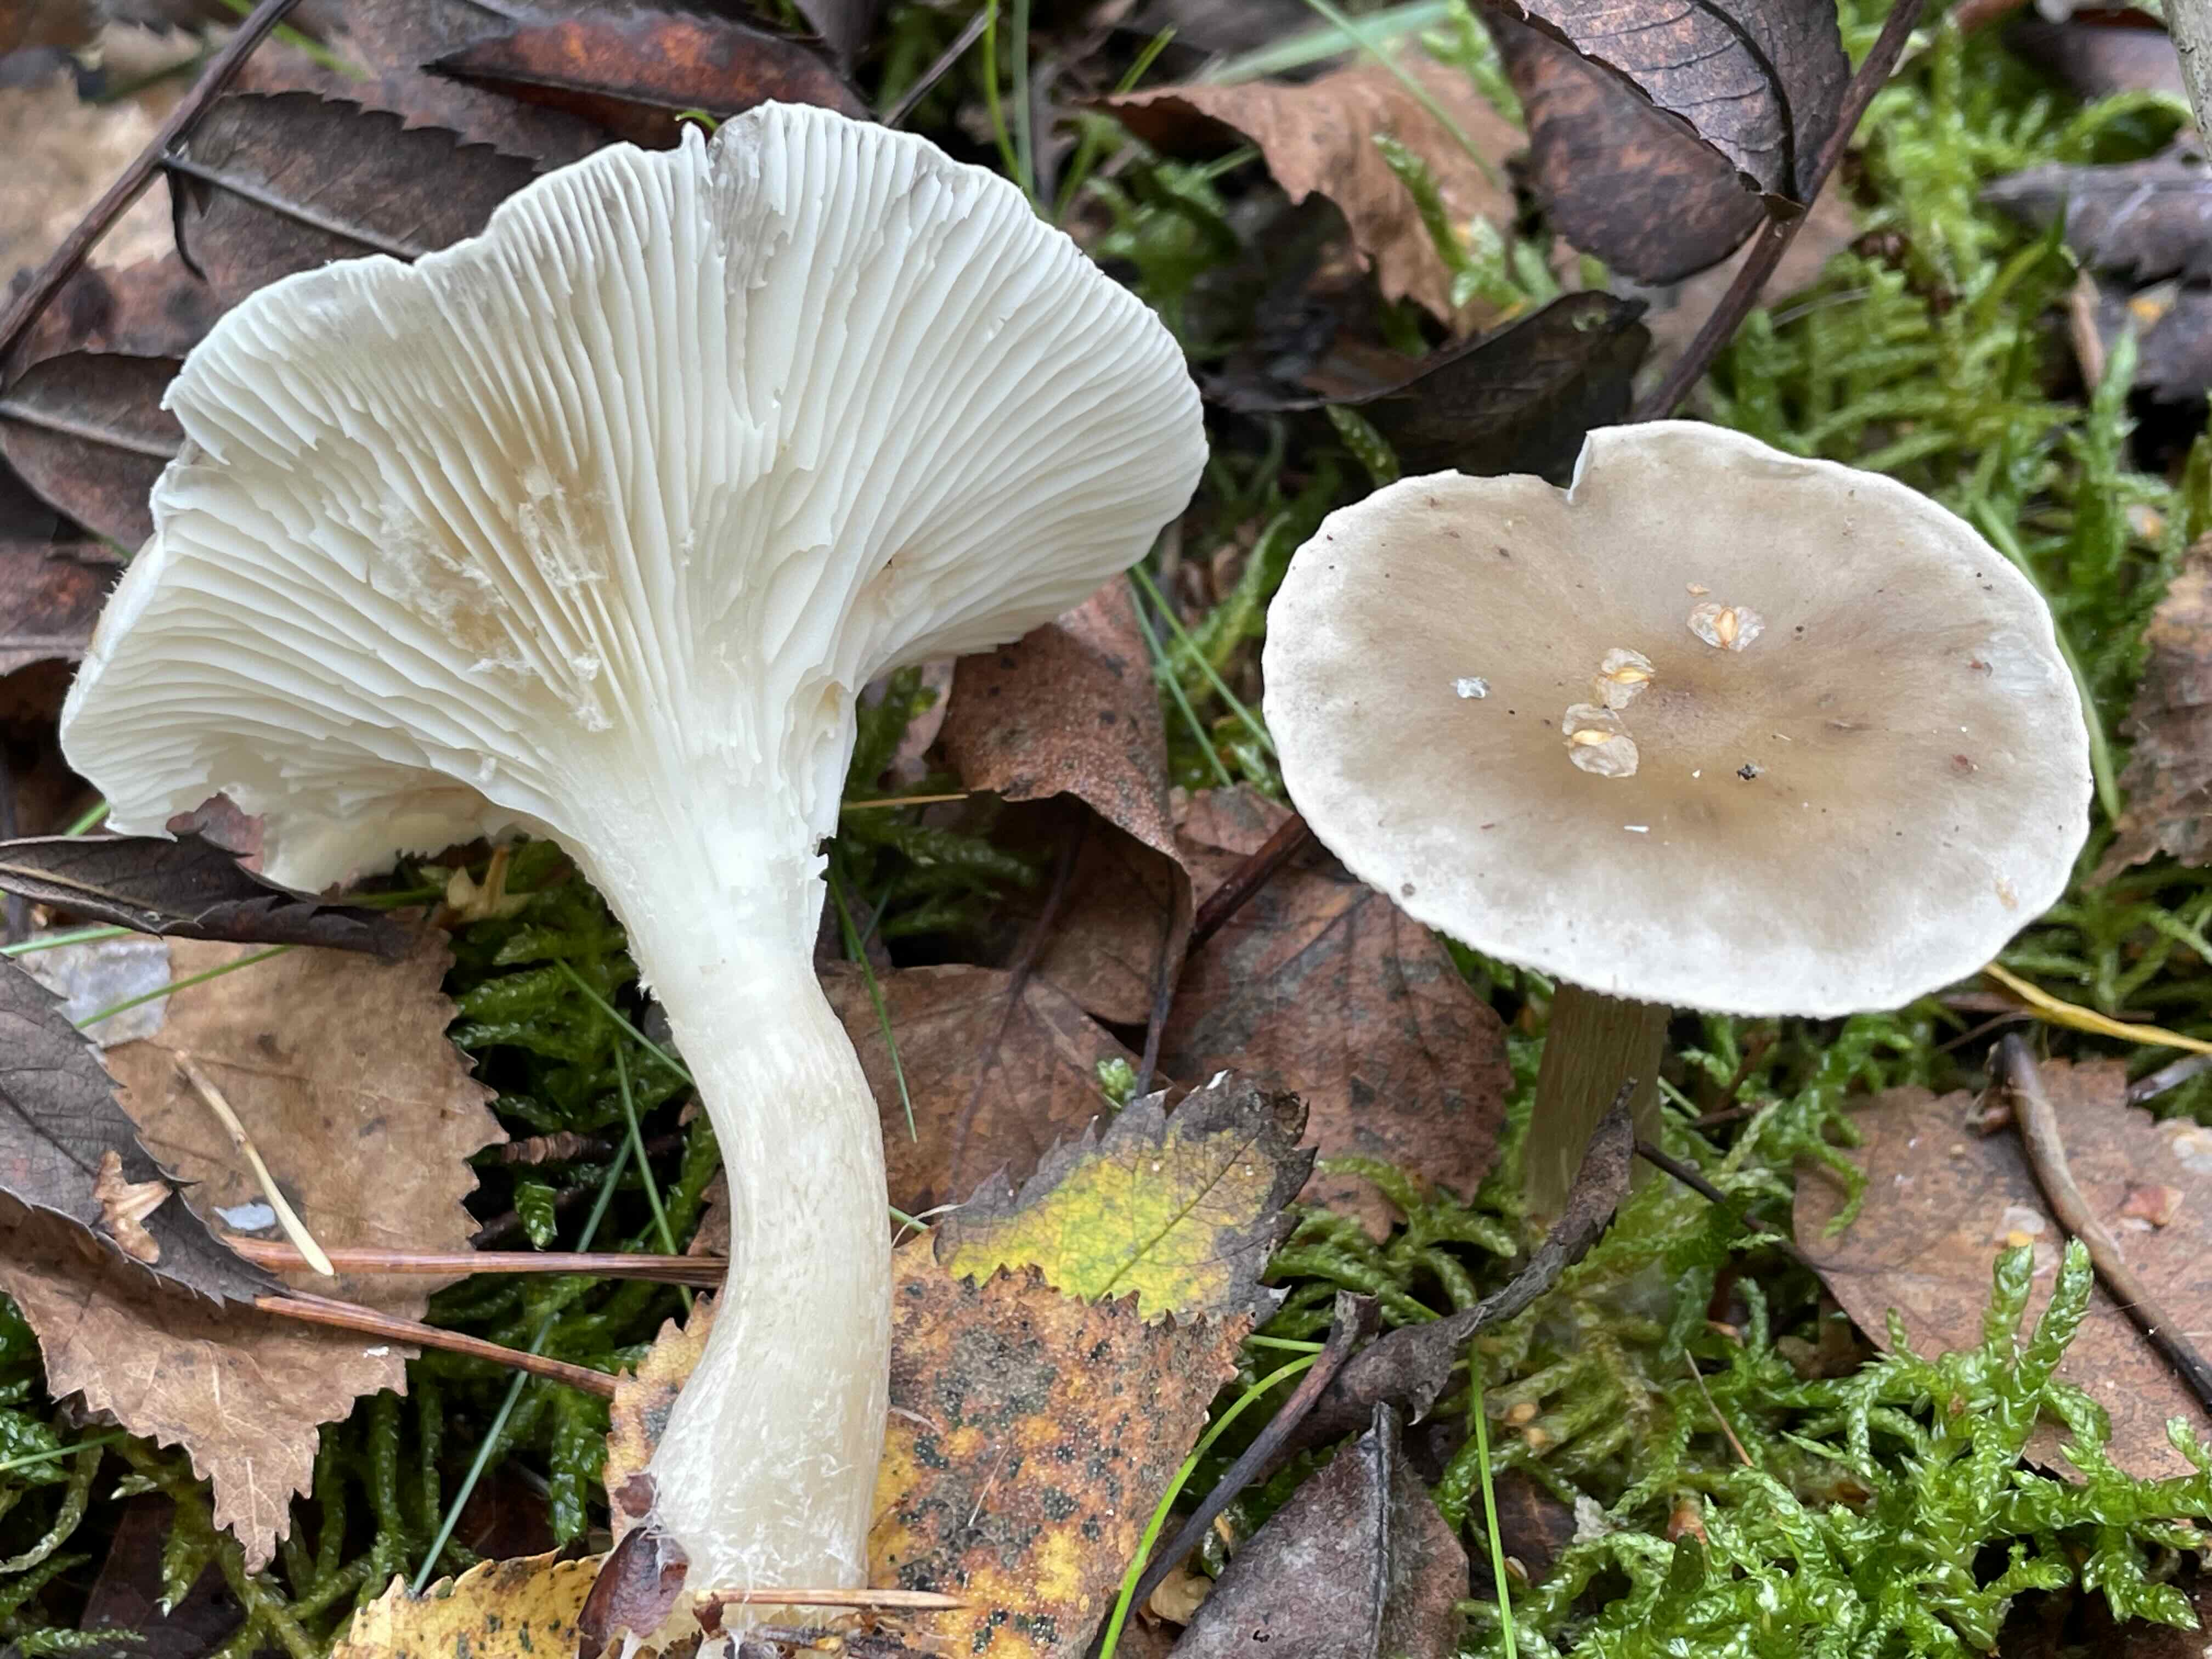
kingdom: Fungi
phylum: Basidiomycota
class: Agaricomycetes
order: Agaricales
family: Hygrophoraceae
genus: Ampulloclitocybe
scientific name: Ampulloclitocybe clavipes
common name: køllefod
